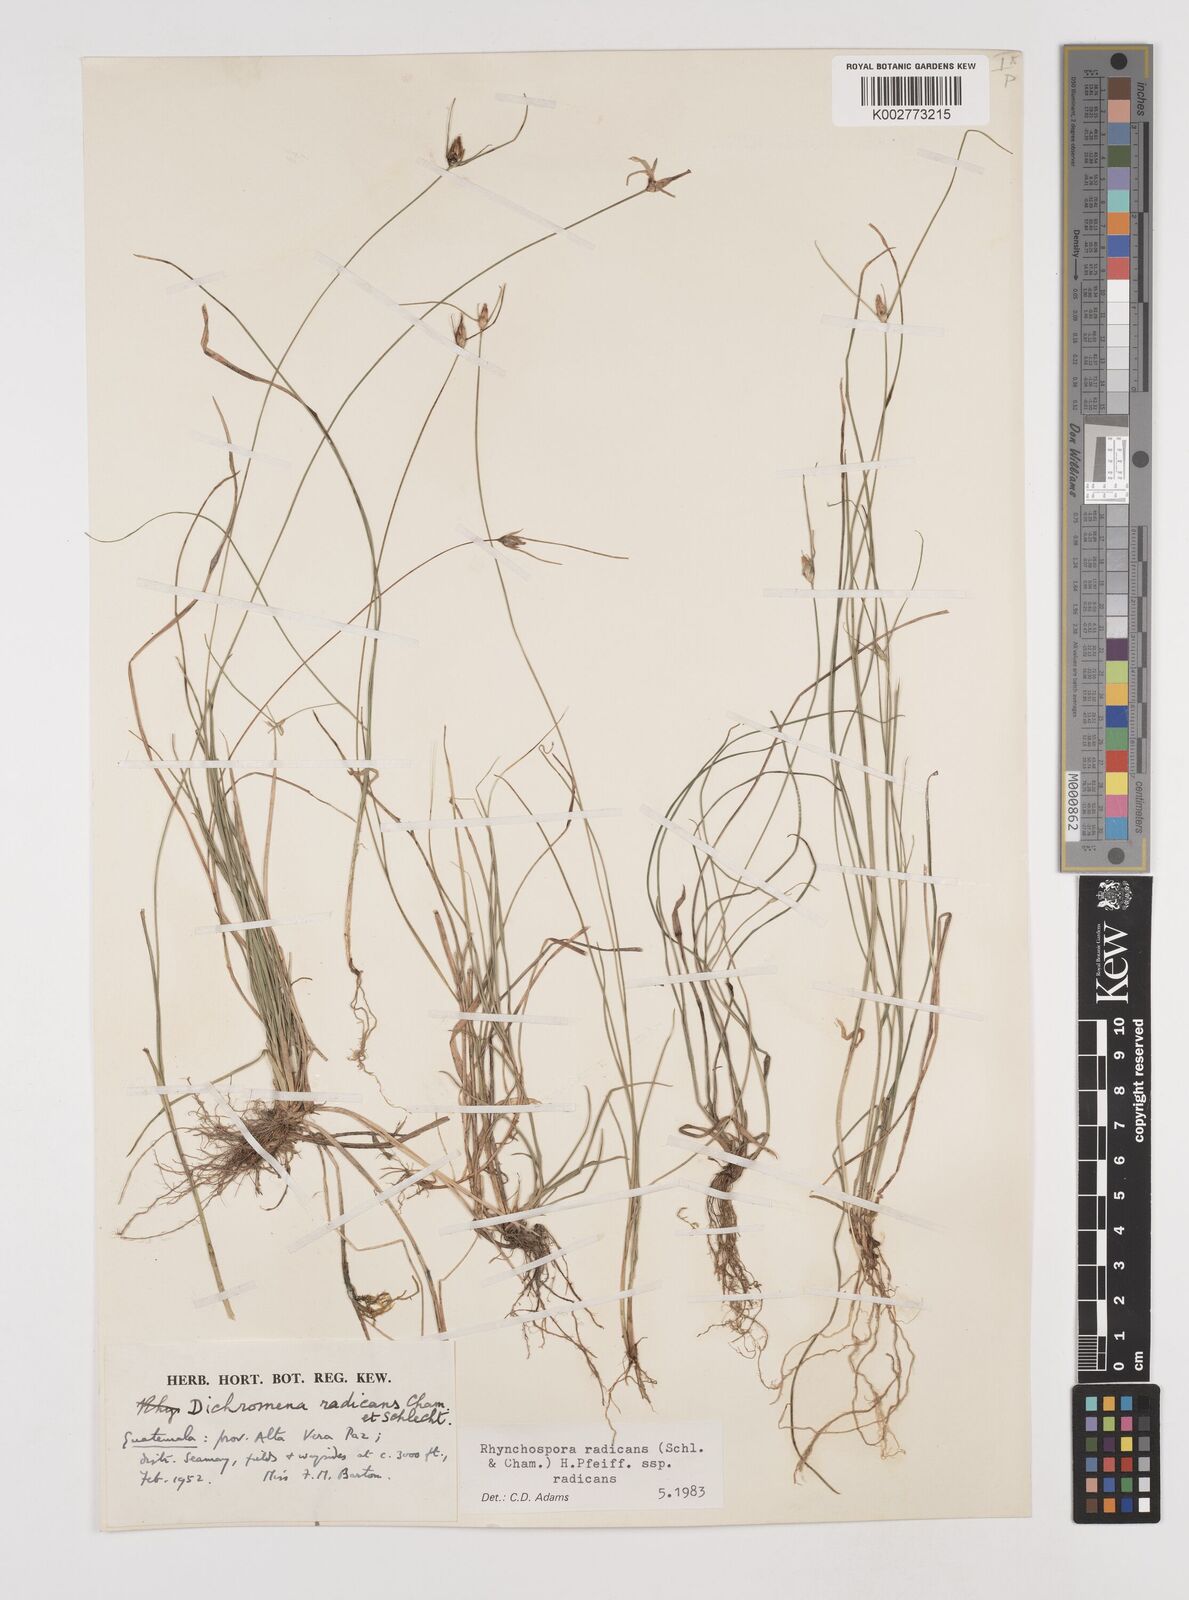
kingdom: Plantae
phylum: Tracheophyta
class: Liliopsida
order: Poales
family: Cyperaceae
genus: Rhynchospora
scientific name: Rhynchospora radicans
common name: Tropical whitetop
